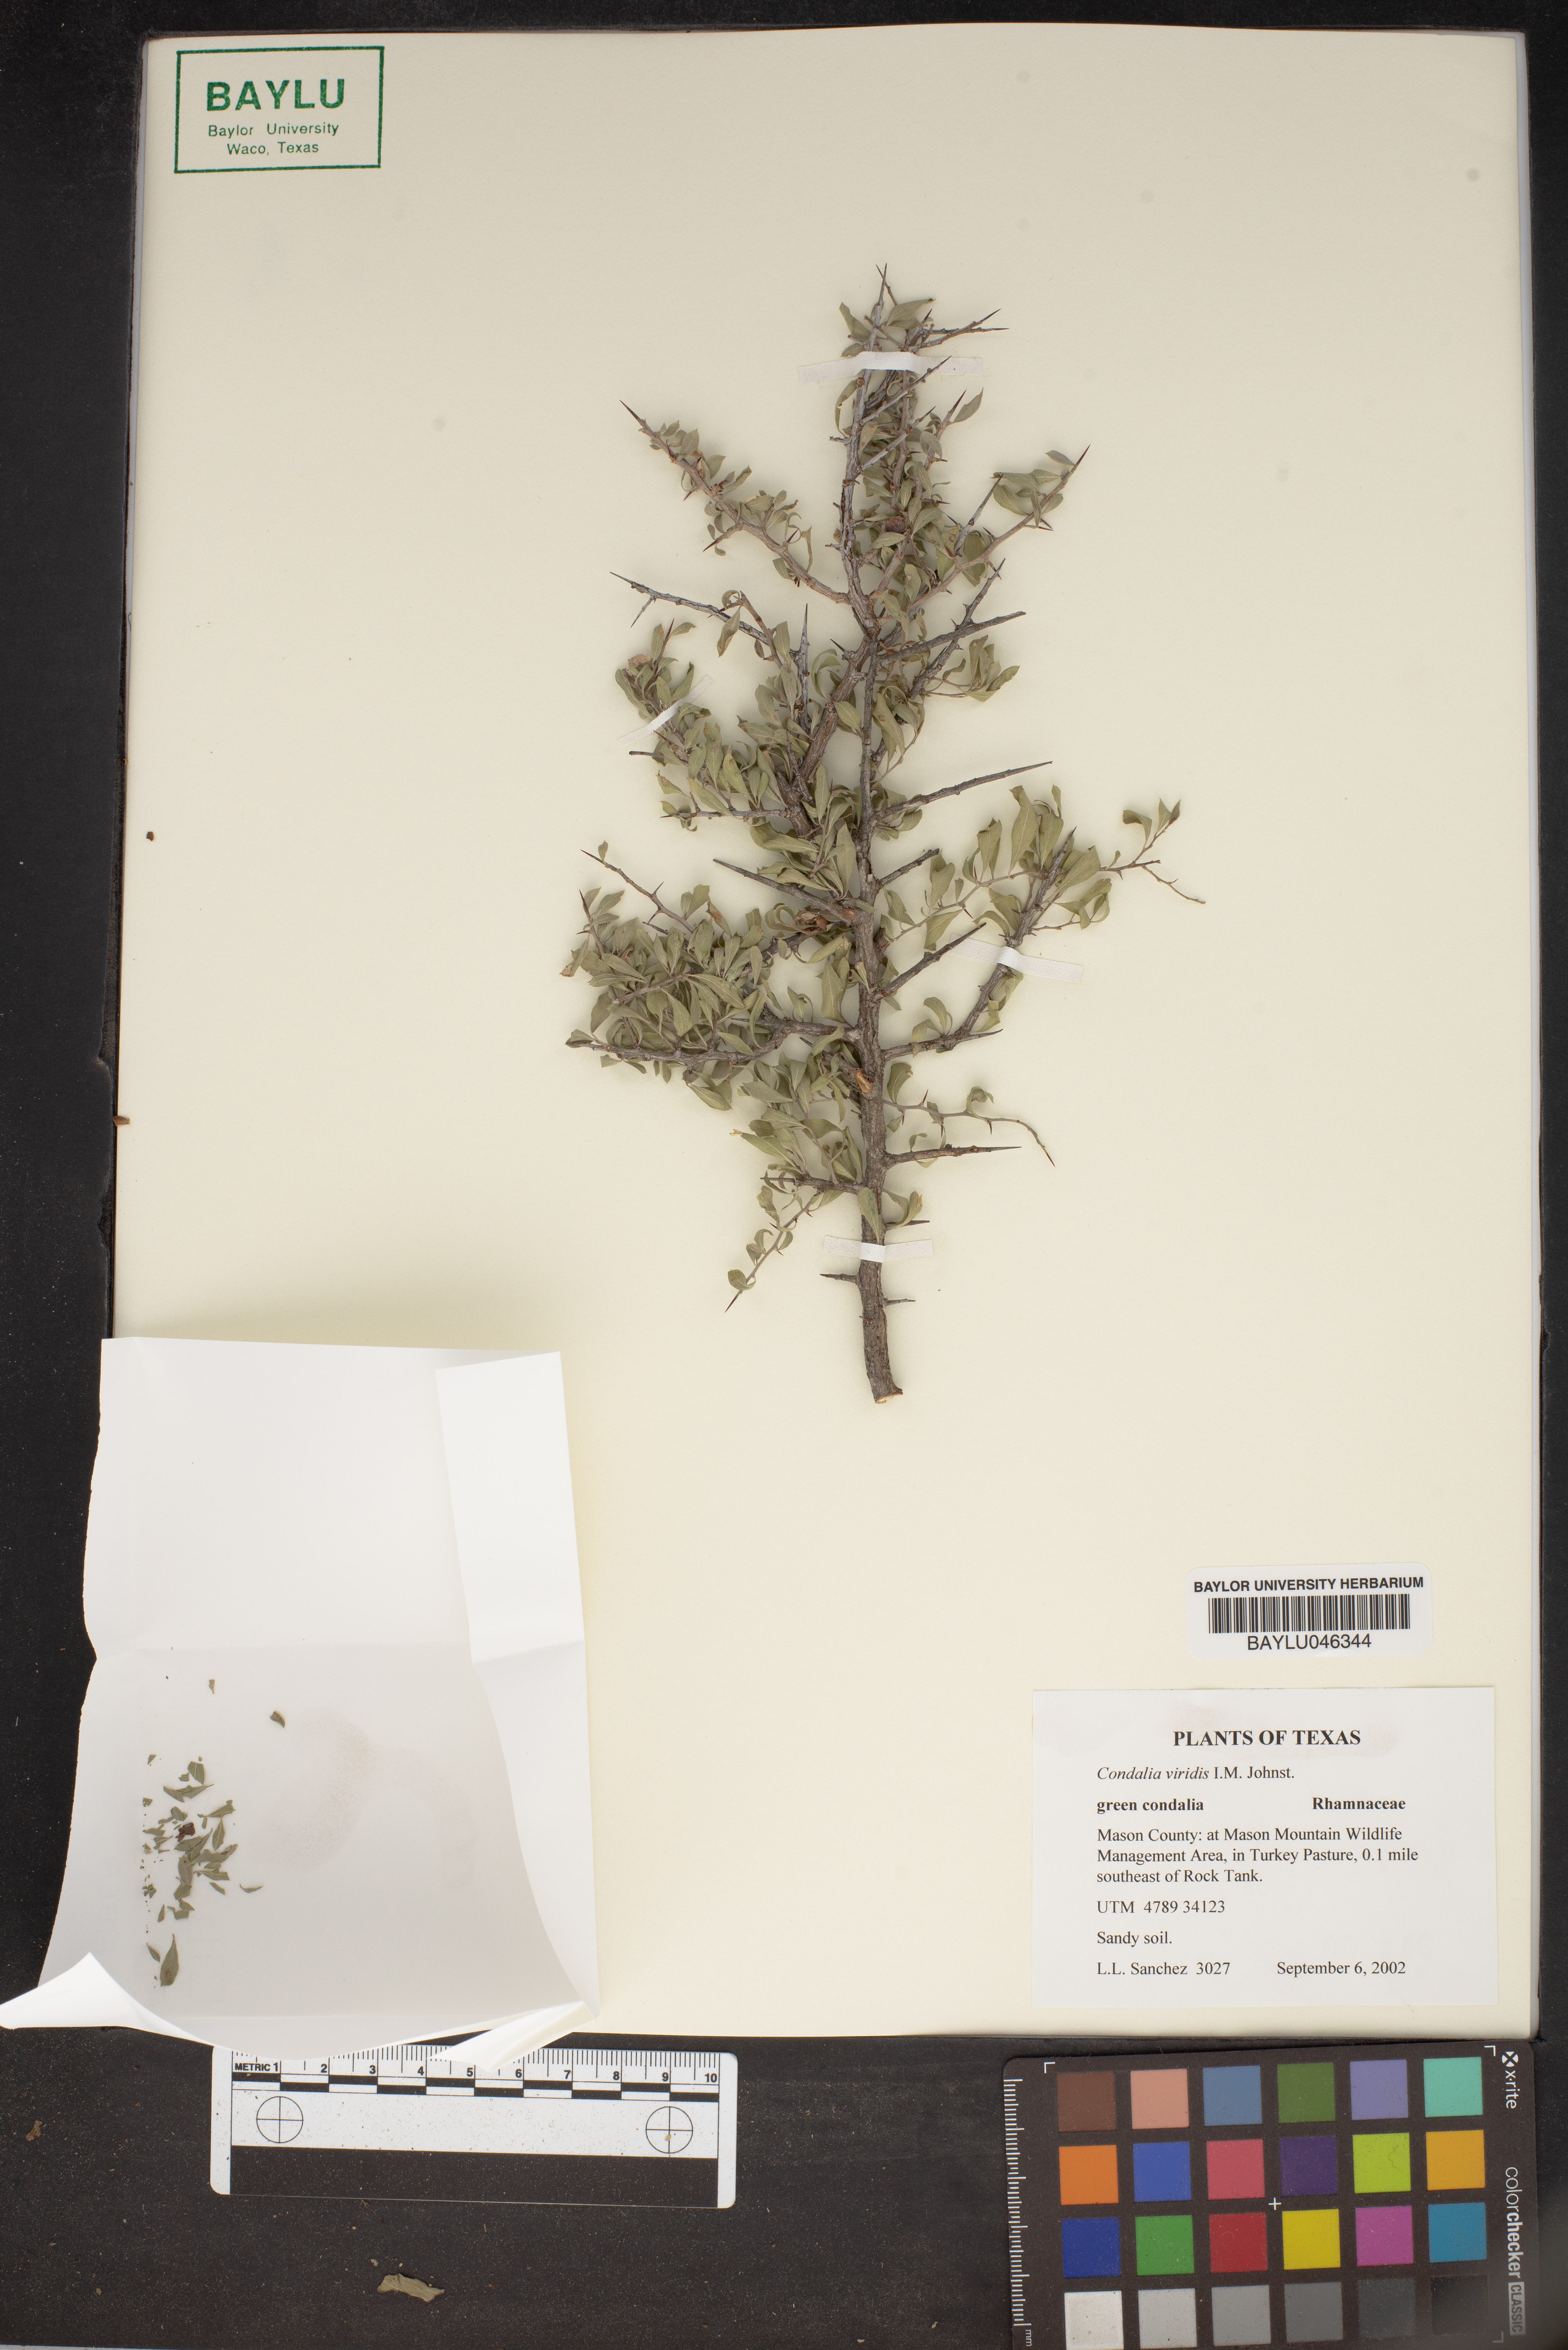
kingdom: Plantae
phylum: Tracheophyta
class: Magnoliopsida
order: Rosales
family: Rhamnaceae
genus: Condalia
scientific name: Condalia viridis
